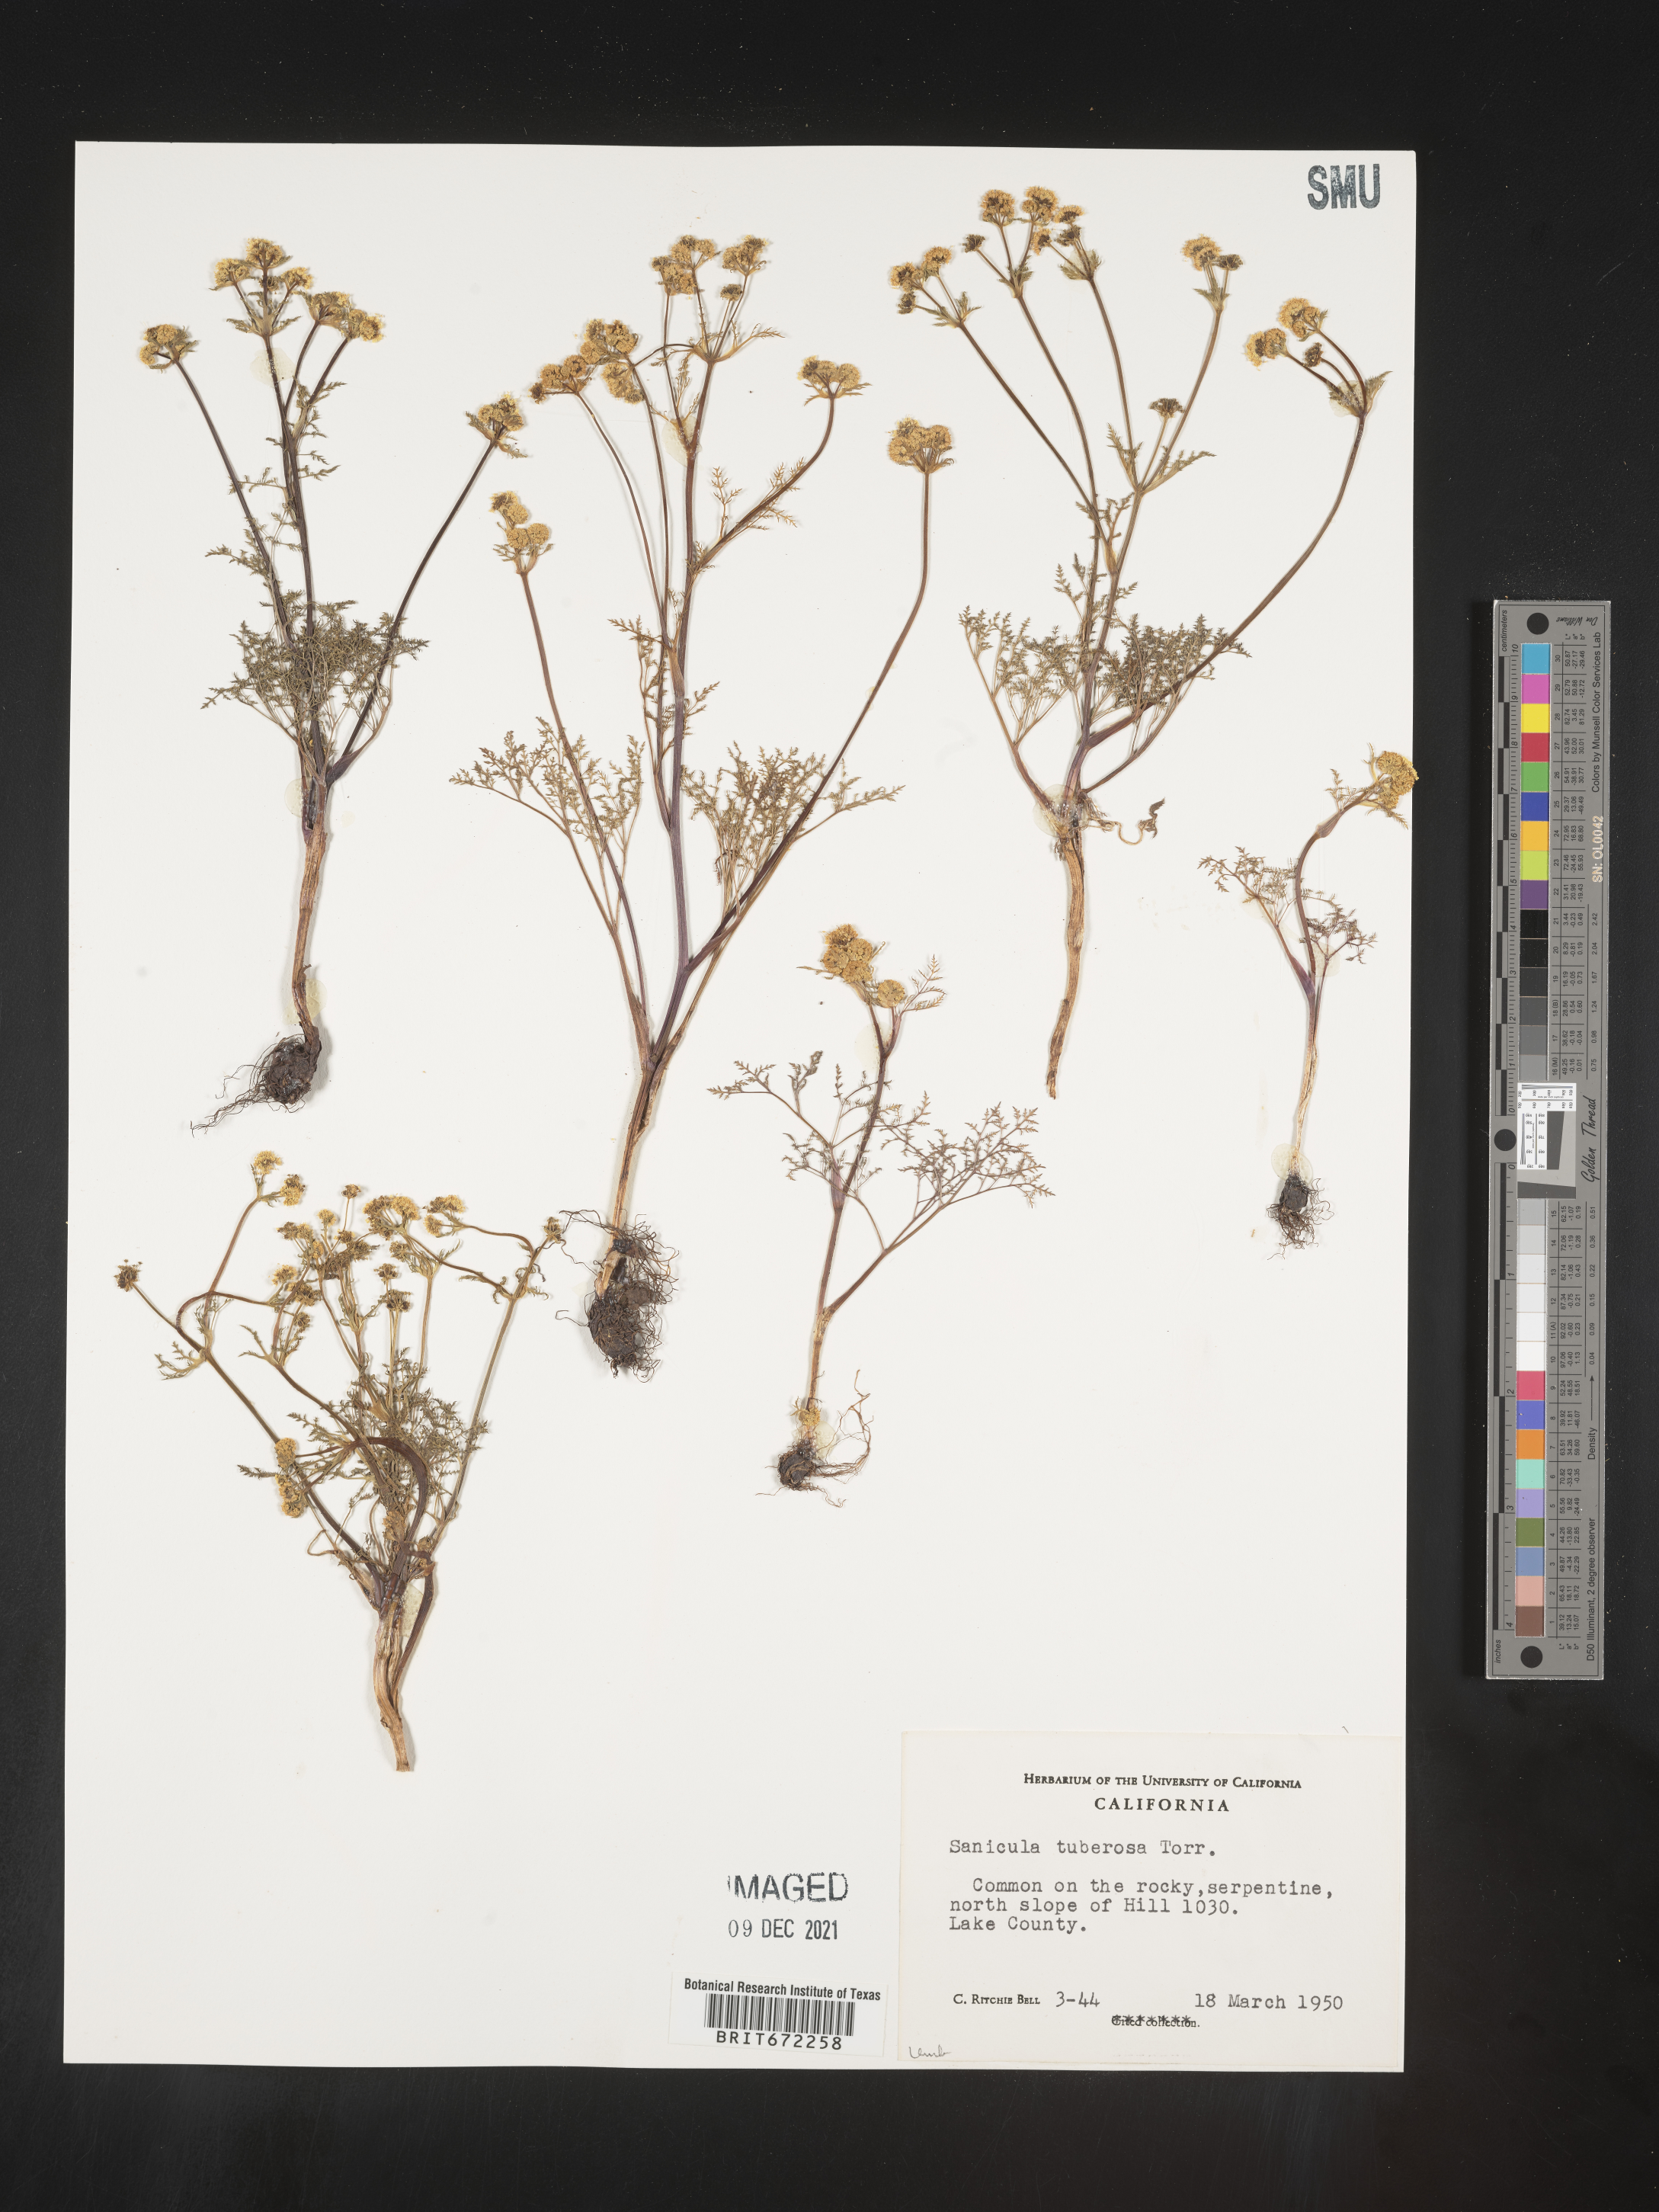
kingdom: Plantae
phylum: Tracheophyta
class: Magnoliopsida
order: Apiales
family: Apiaceae
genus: Sanicula
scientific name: Sanicula
